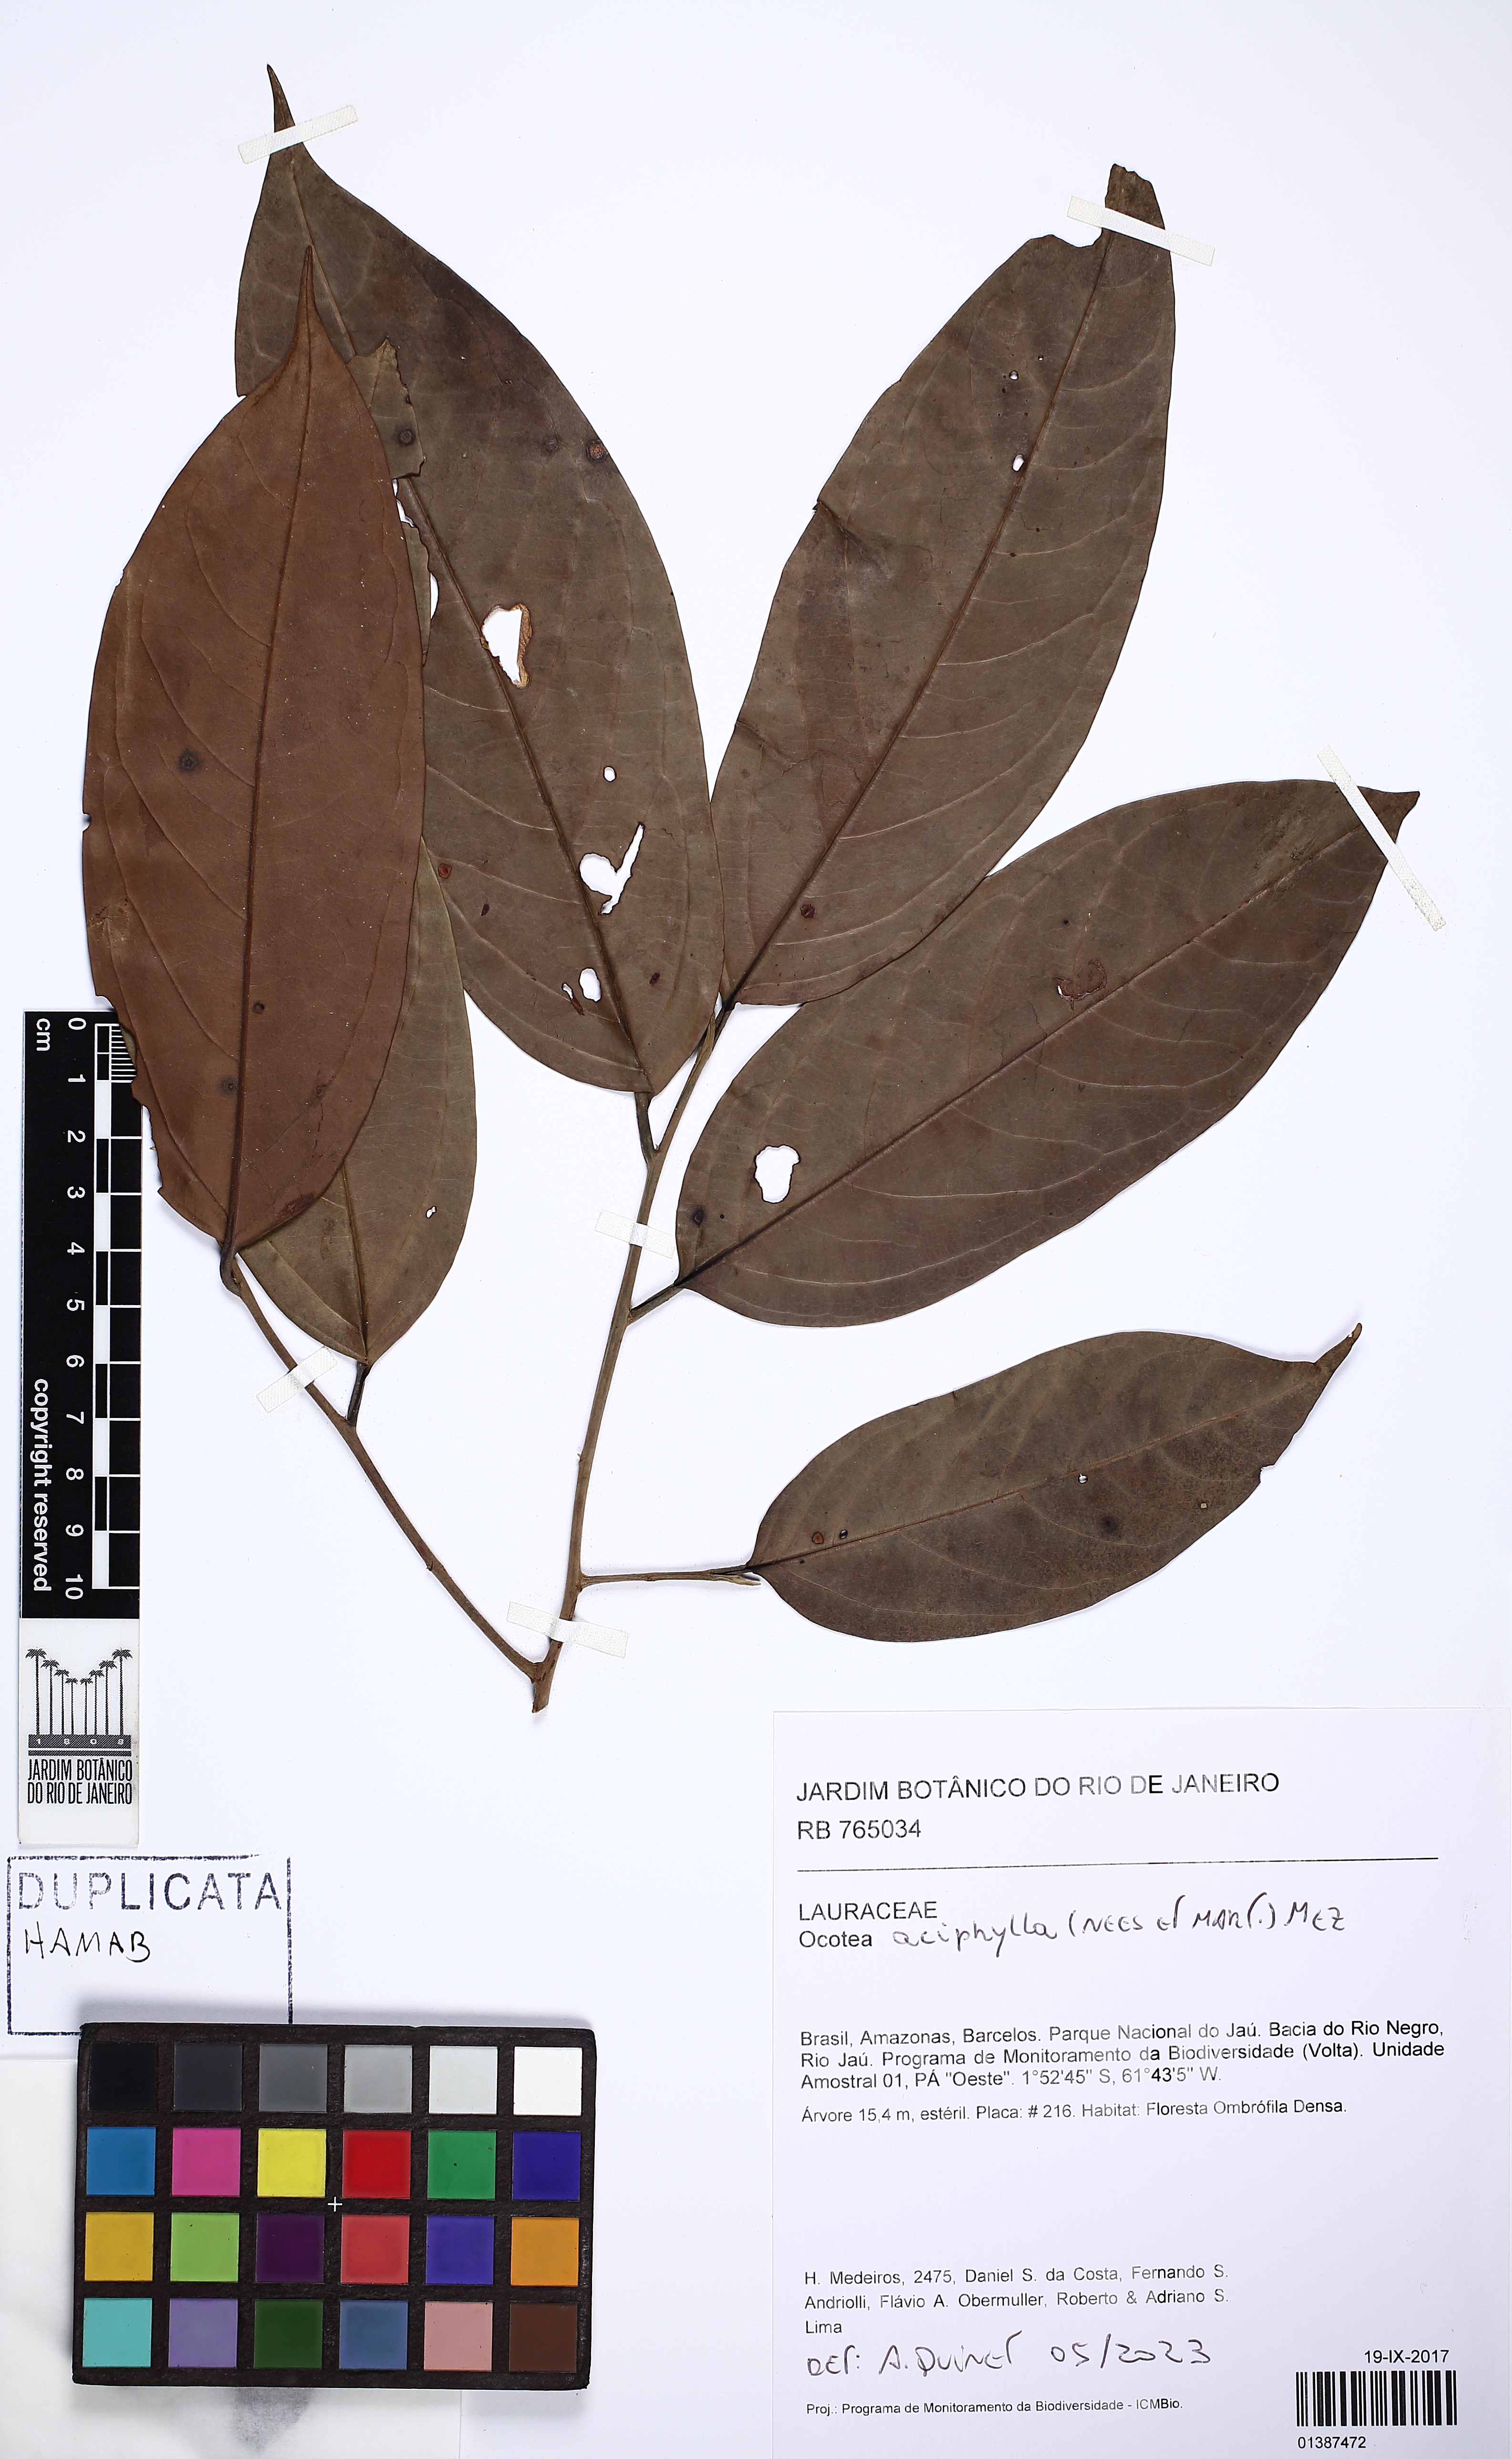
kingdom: Plantae
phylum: Tracheophyta
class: Magnoliopsida
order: Laurales
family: Lauraceae
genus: Ocotea
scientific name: Ocotea aciphylla
